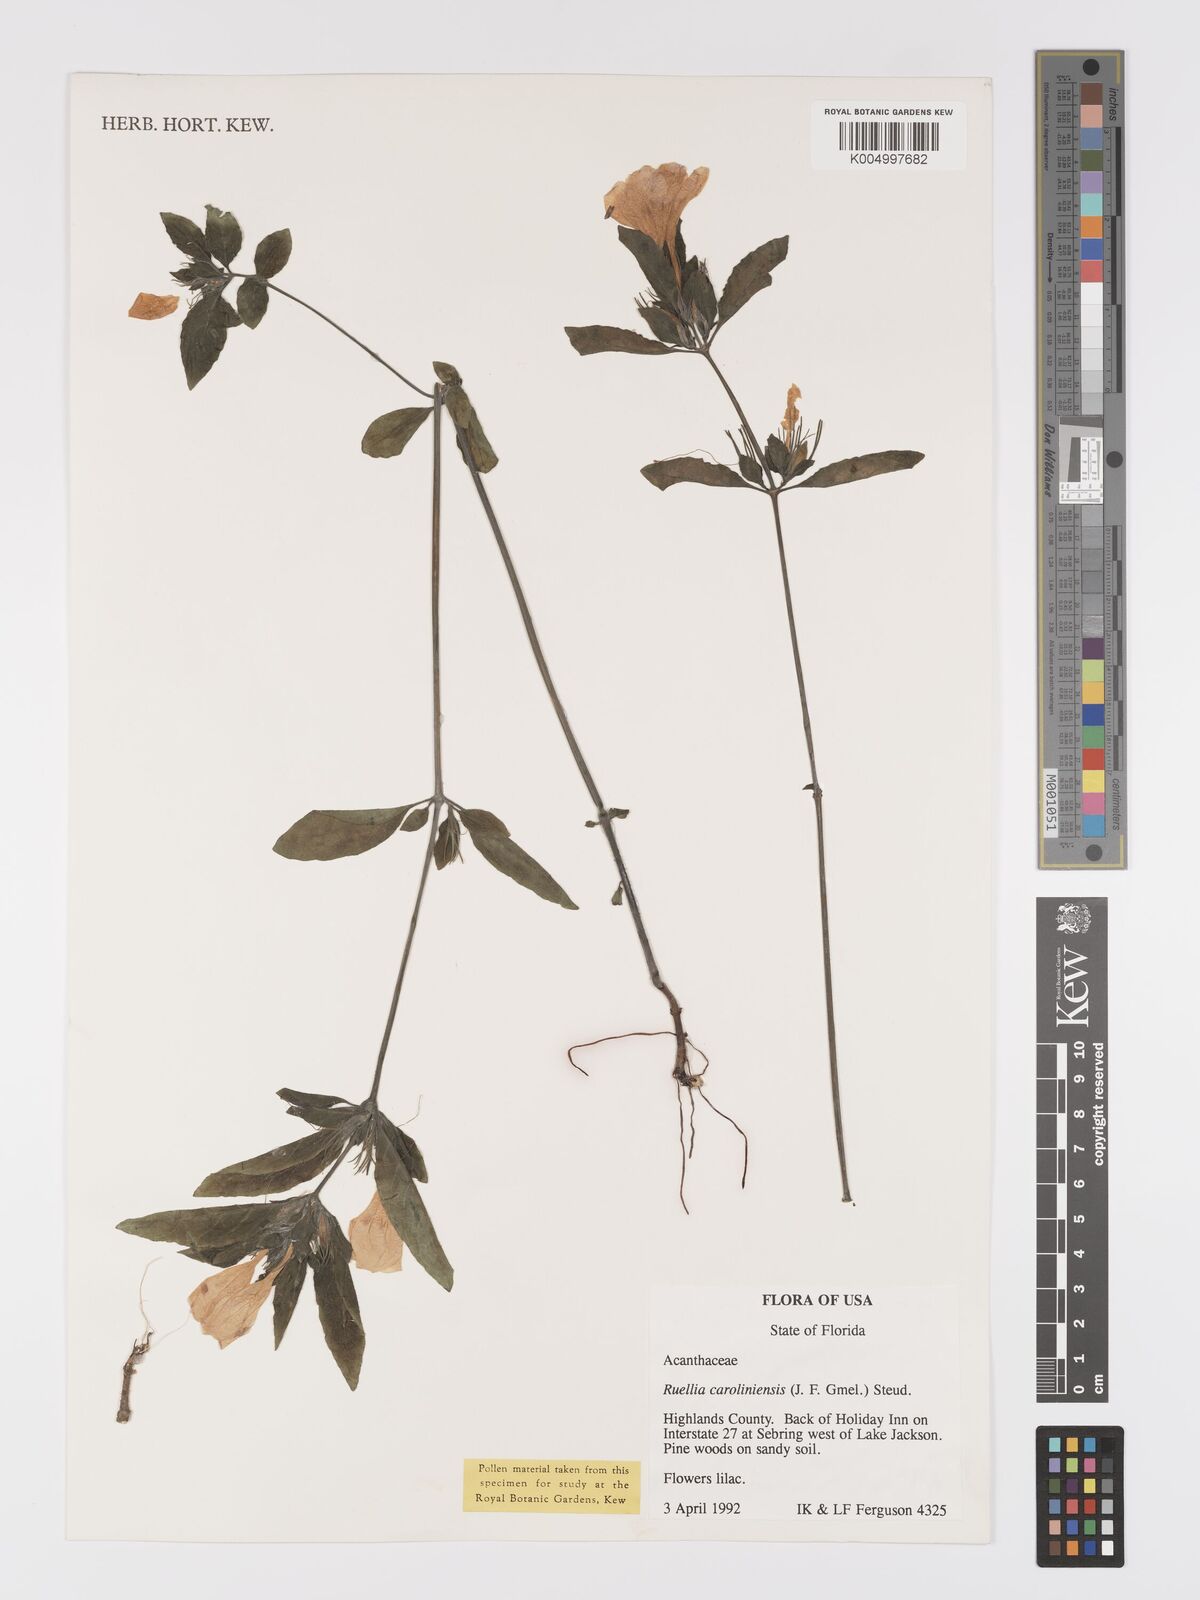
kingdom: Plantae
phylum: Tracheophyta
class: Magnoliopsida
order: Lamiales
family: Acanthaceae
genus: Ruellia
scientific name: Ruellia caroliniensis
